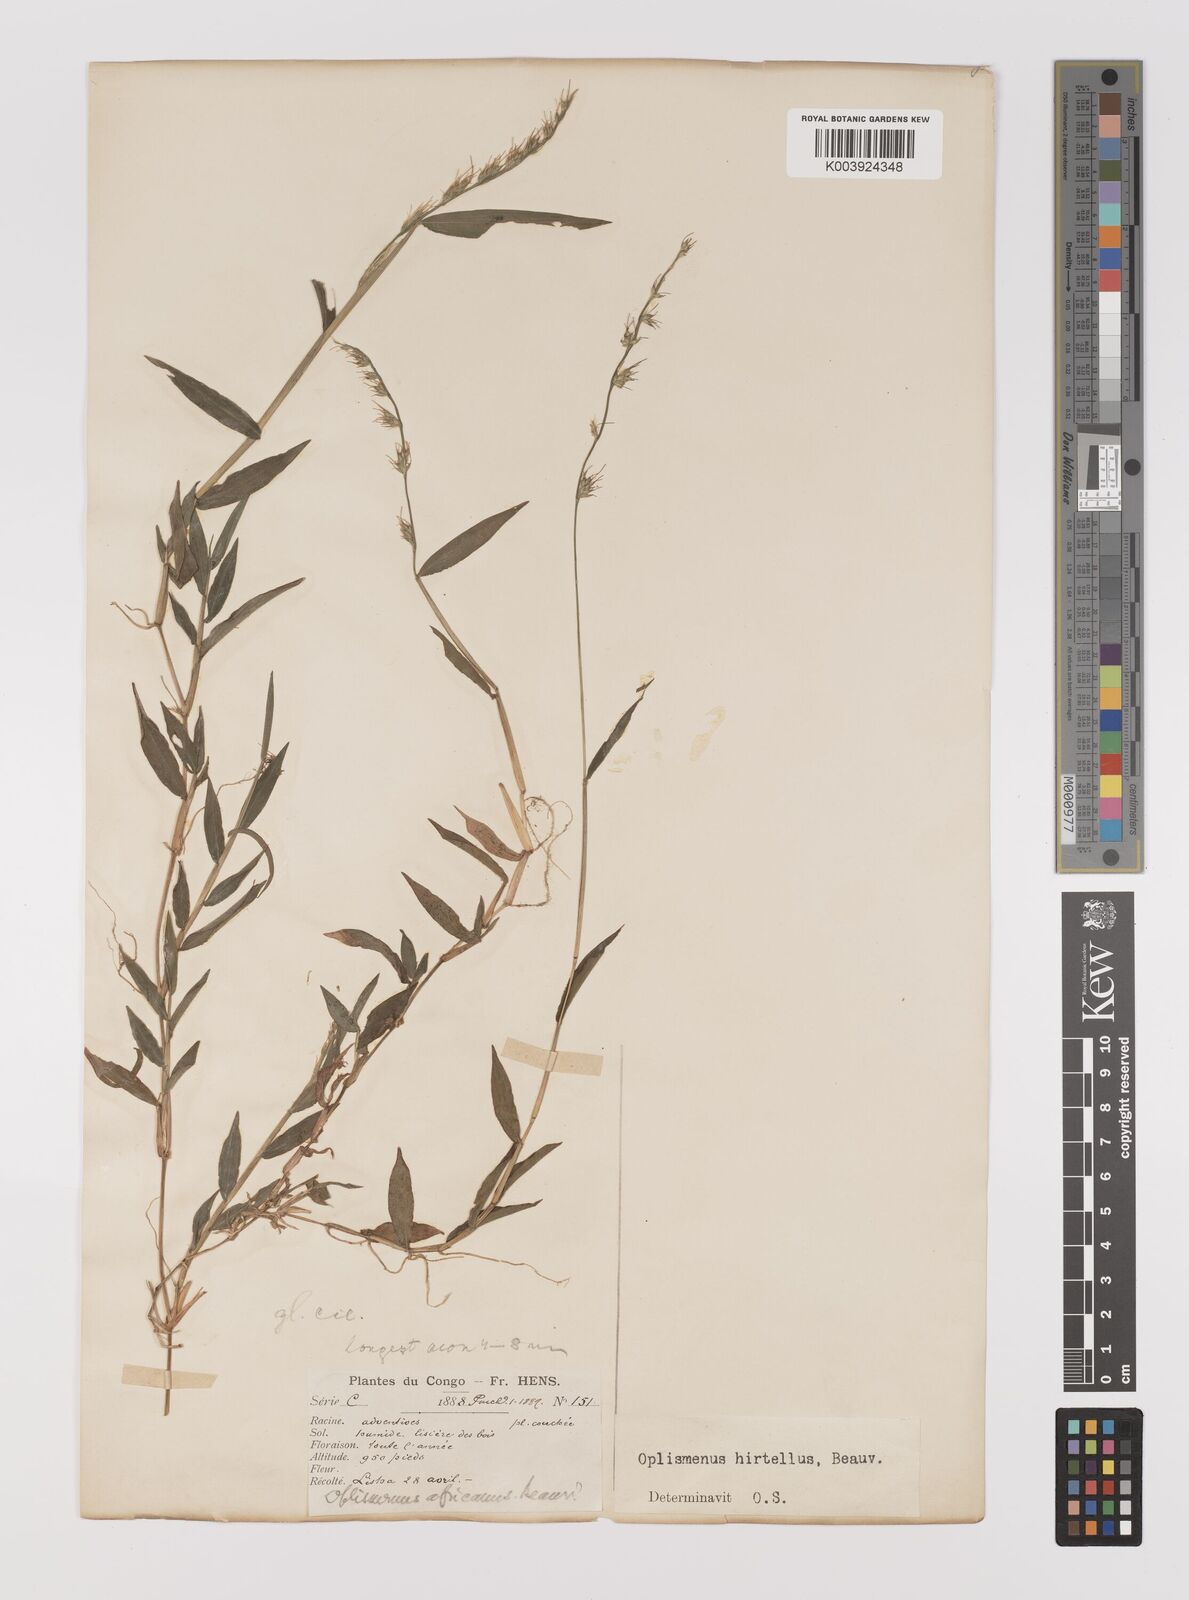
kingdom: Plantae
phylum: Tracheophyta
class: Liliopsida
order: Poales
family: Poaceae
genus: Oplismenus
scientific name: Oplismenus hirtellus
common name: Basketgrass
